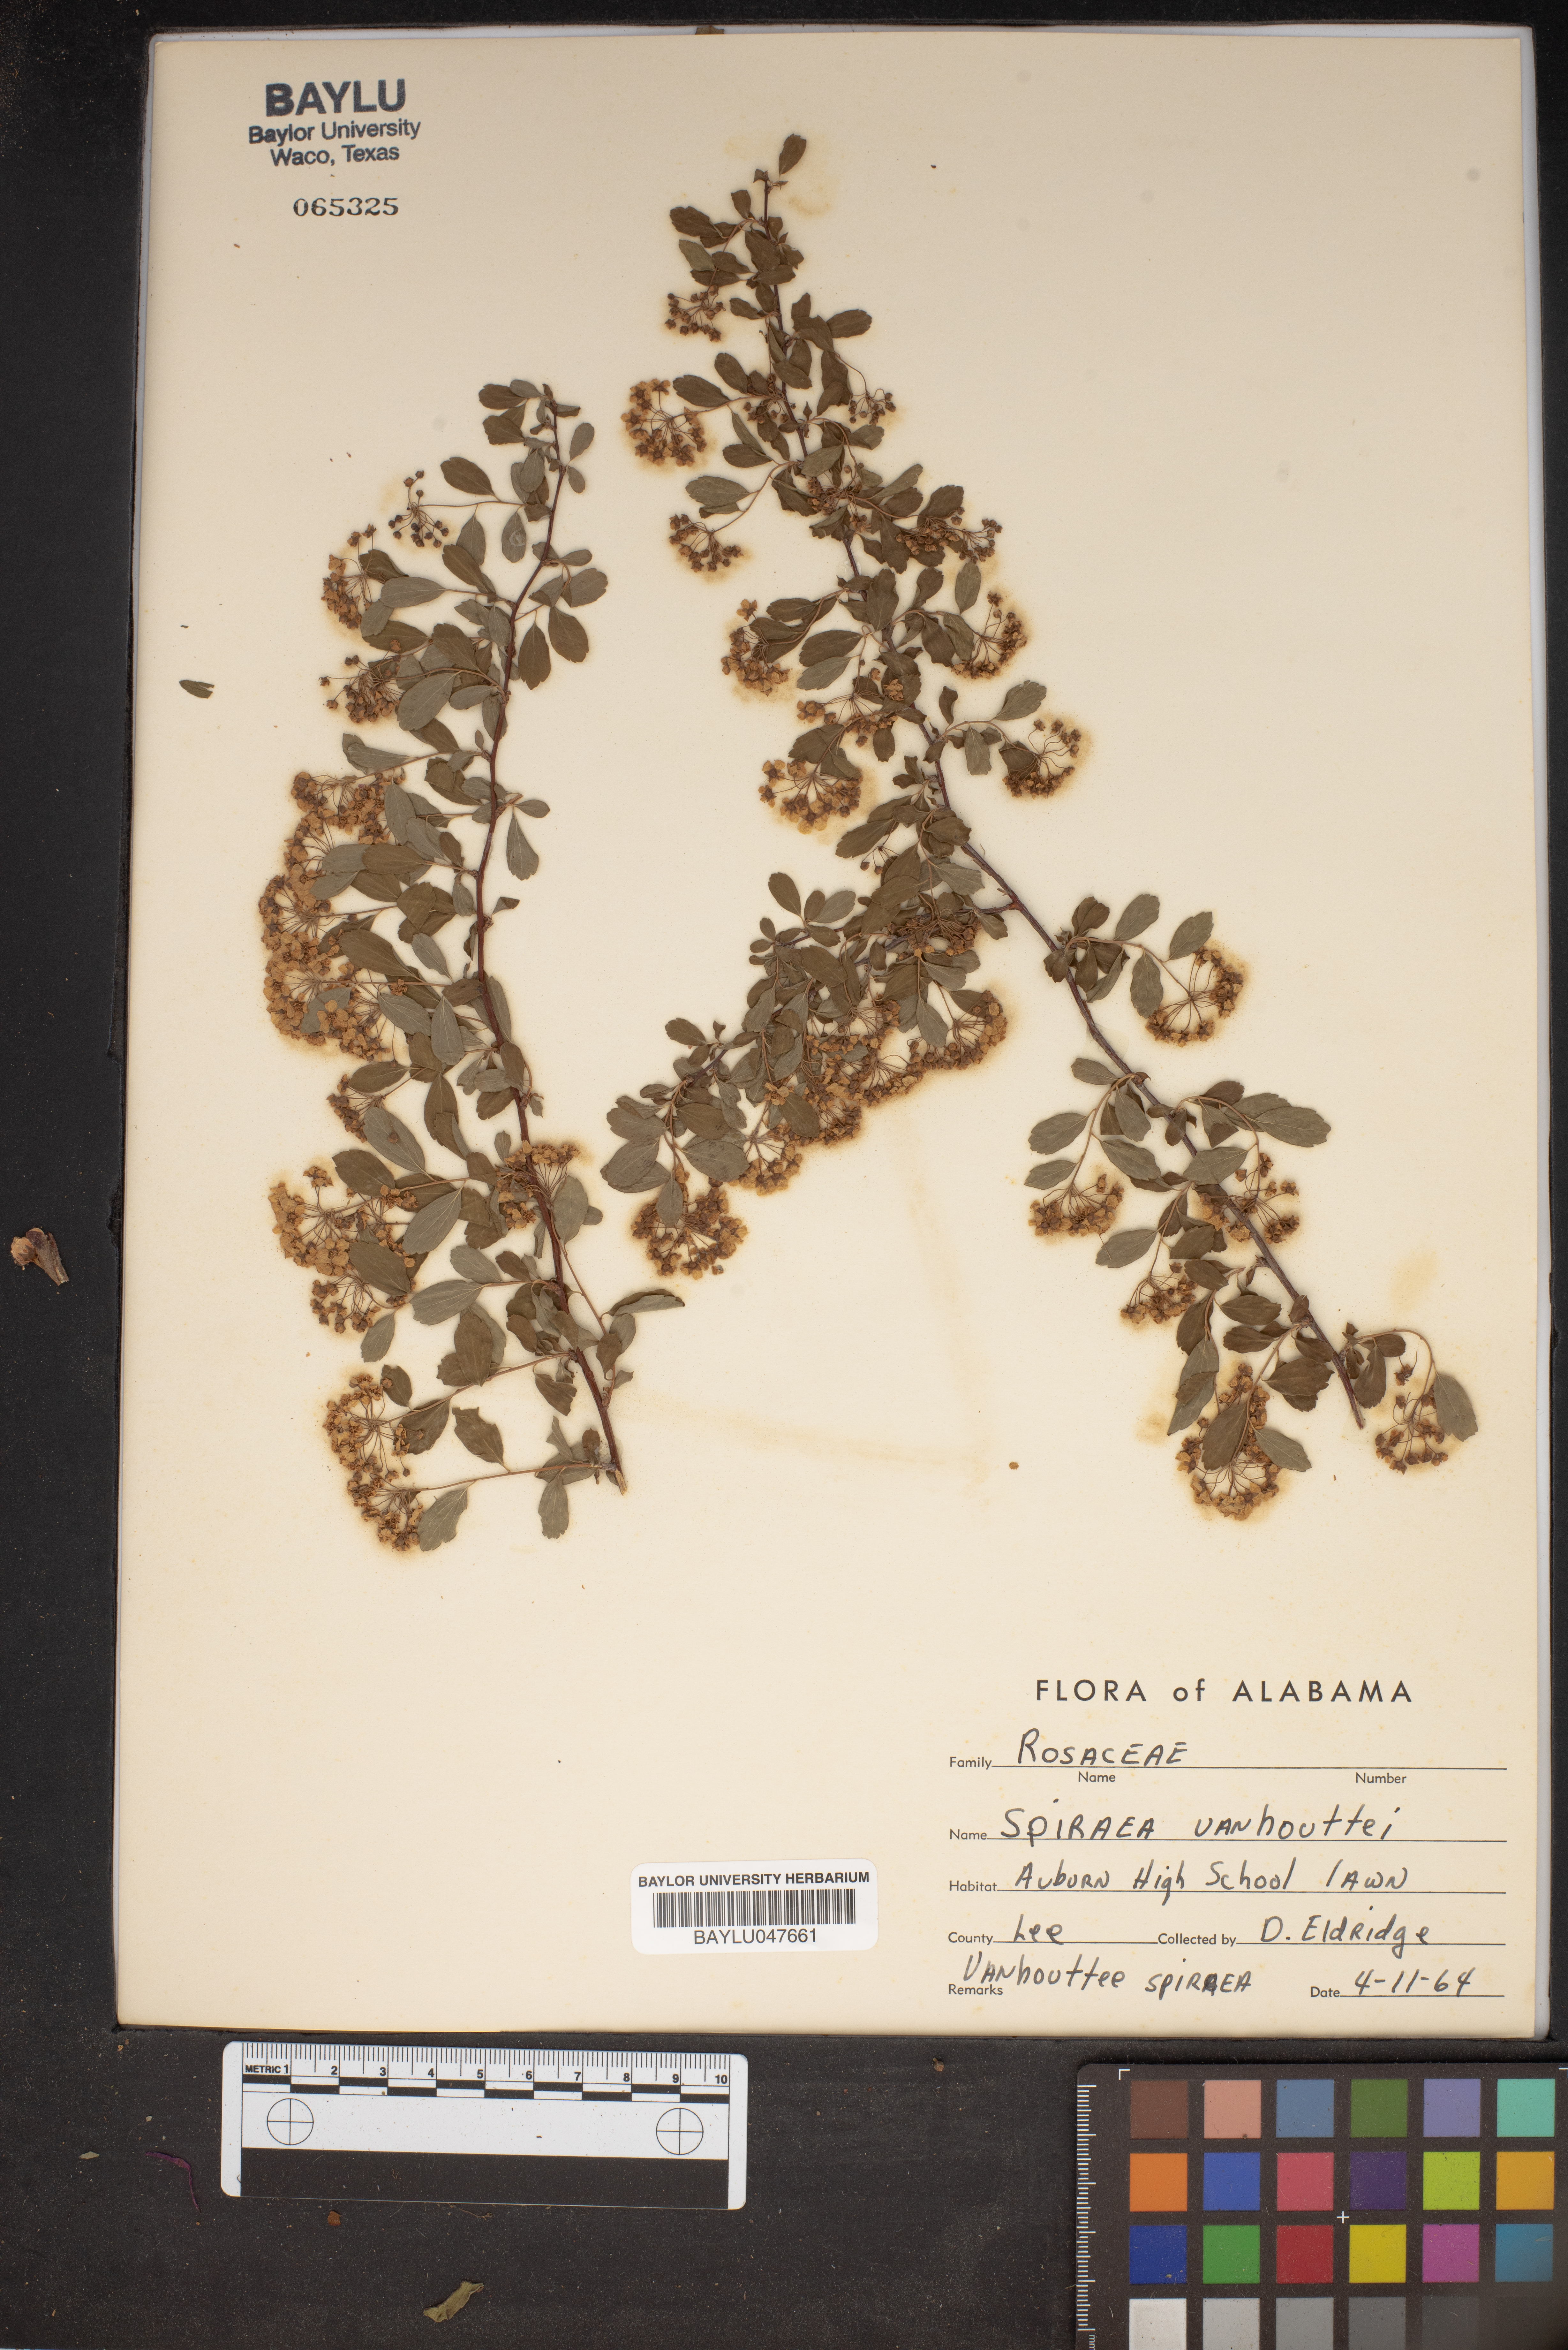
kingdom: Plantae
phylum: Tracheophyta
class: Magnoliopsida
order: Rosales
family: Rosaceae
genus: Spiraea
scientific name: Spiraea vanhouttei
